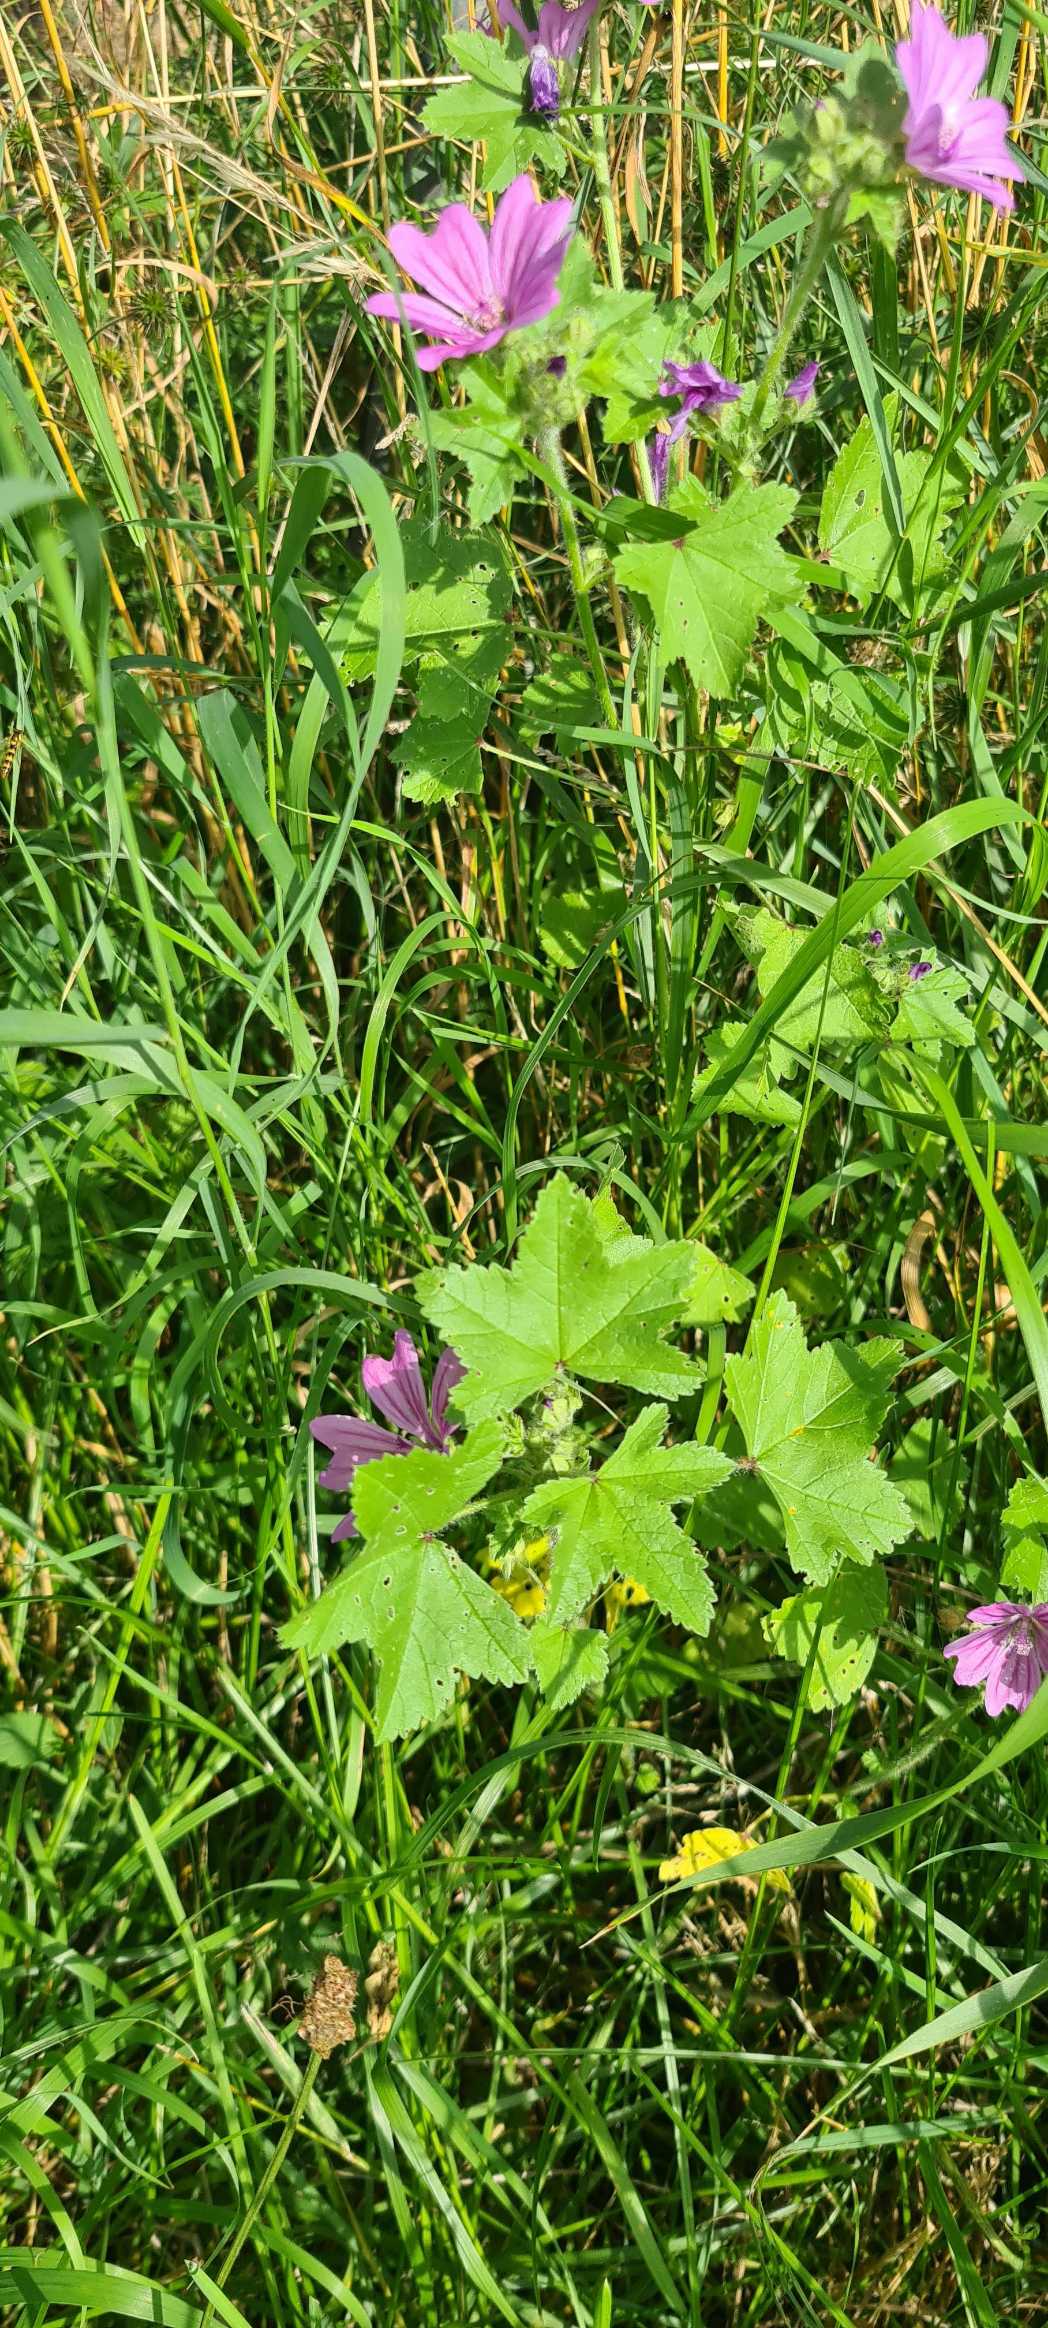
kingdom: Plantae
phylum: Tracheophyta
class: Magnoliopsida
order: Malvales
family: Malvaceae
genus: Malva
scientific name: Malva sylvestris
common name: Almindelig katost
